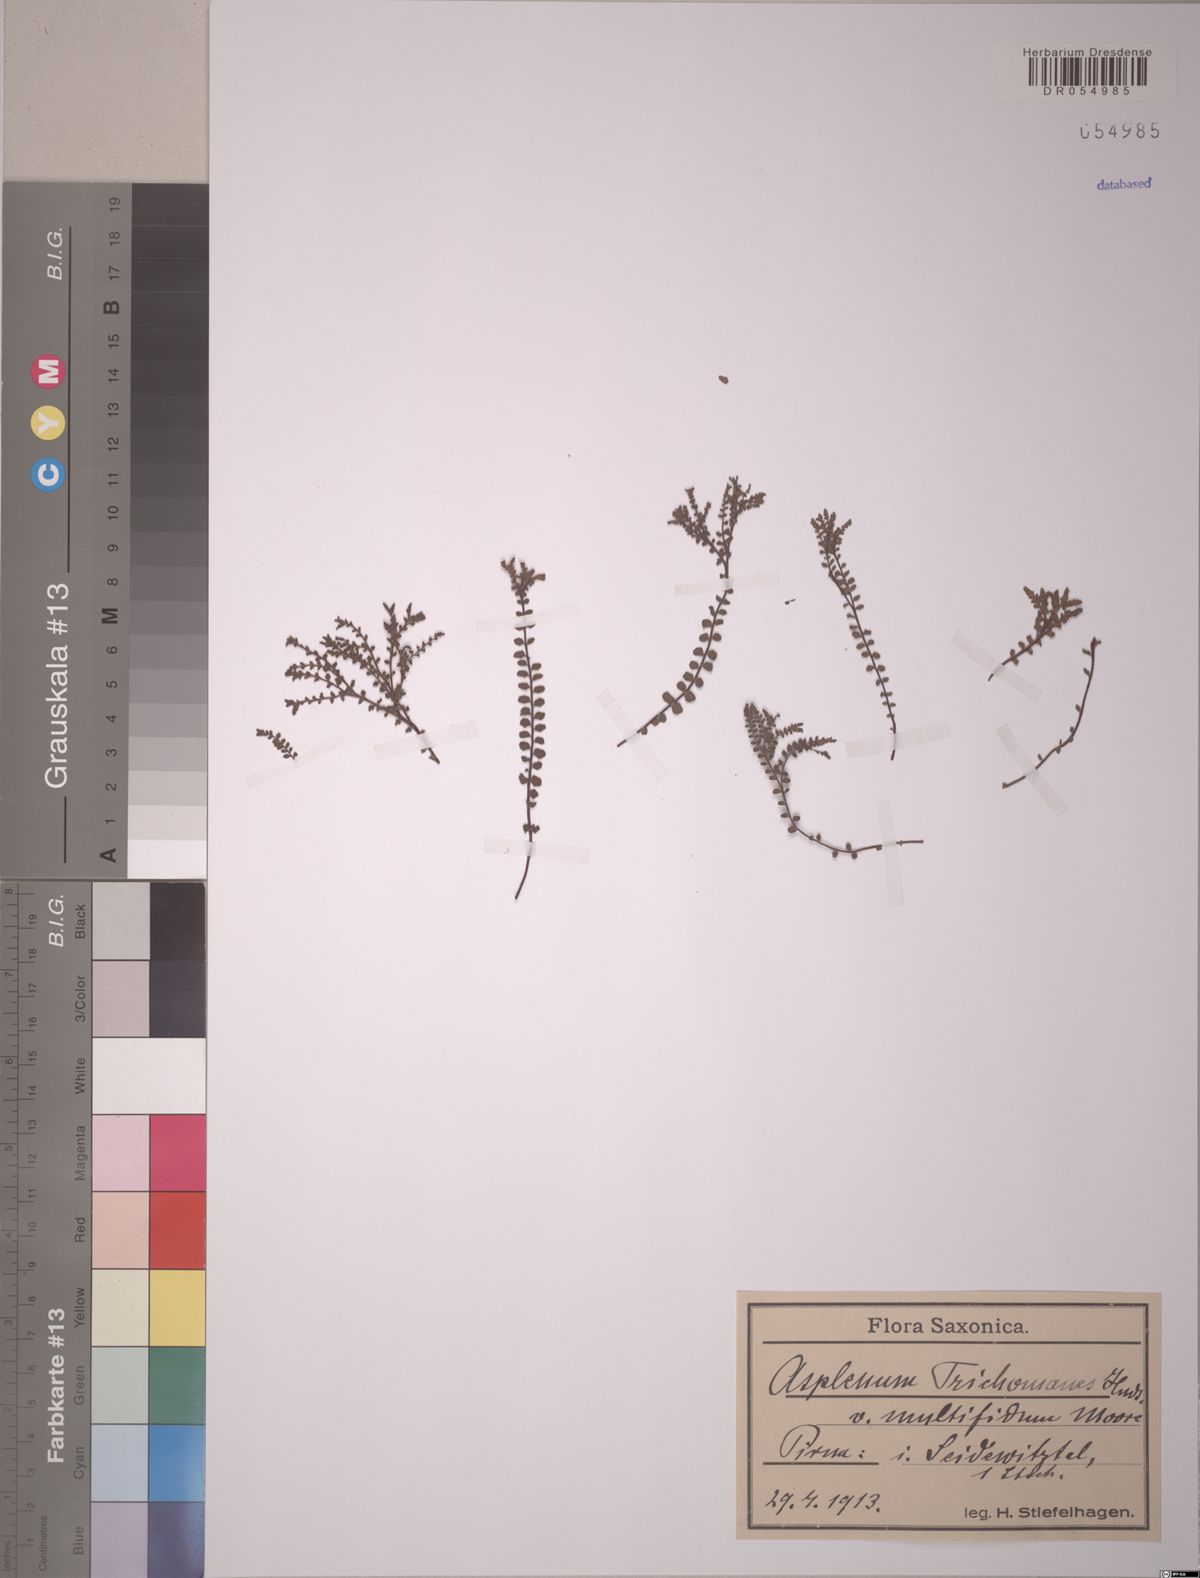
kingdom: Plantae
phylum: Tracheophyta
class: Polypodiopsida
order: Polypodiales
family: Aspleniaceae
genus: Asplenium
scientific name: Asplenium trichomanes
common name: Maidenhair spleenwort
